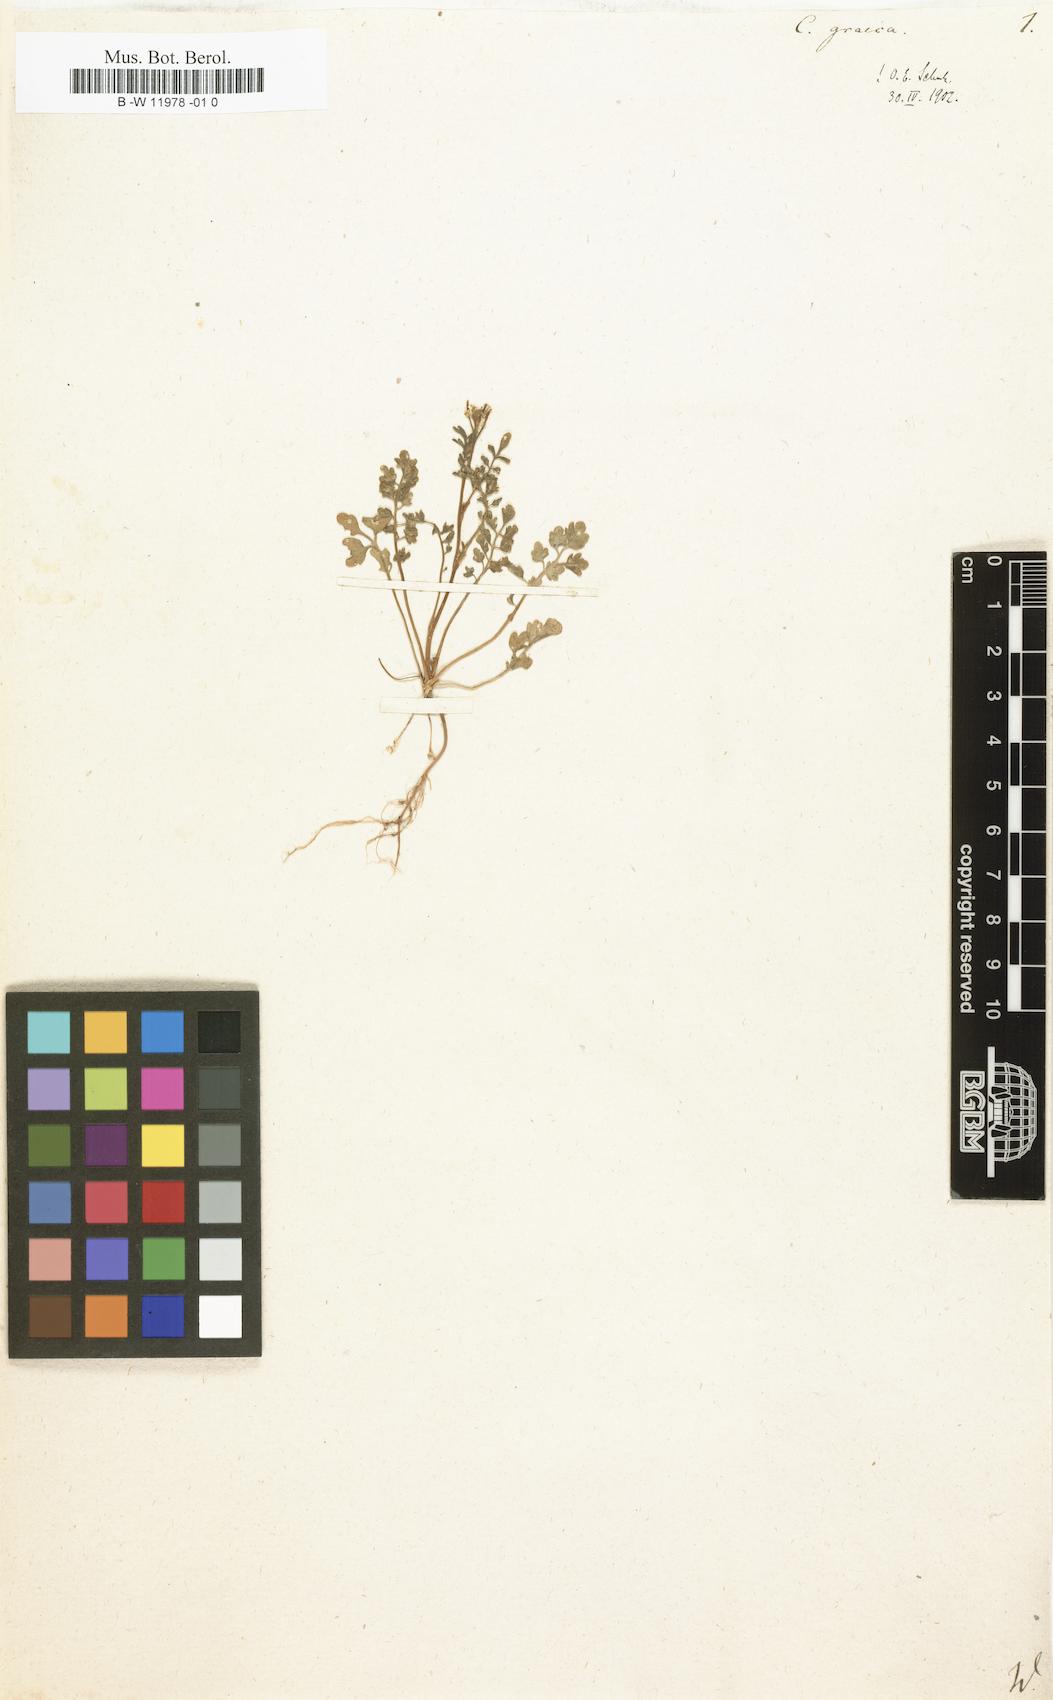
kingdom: Plantae
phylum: Tracheophyta
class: Magnoliopsida
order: Brassicales
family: Brassicaceae
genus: Cardamine
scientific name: Cardamine graeca
